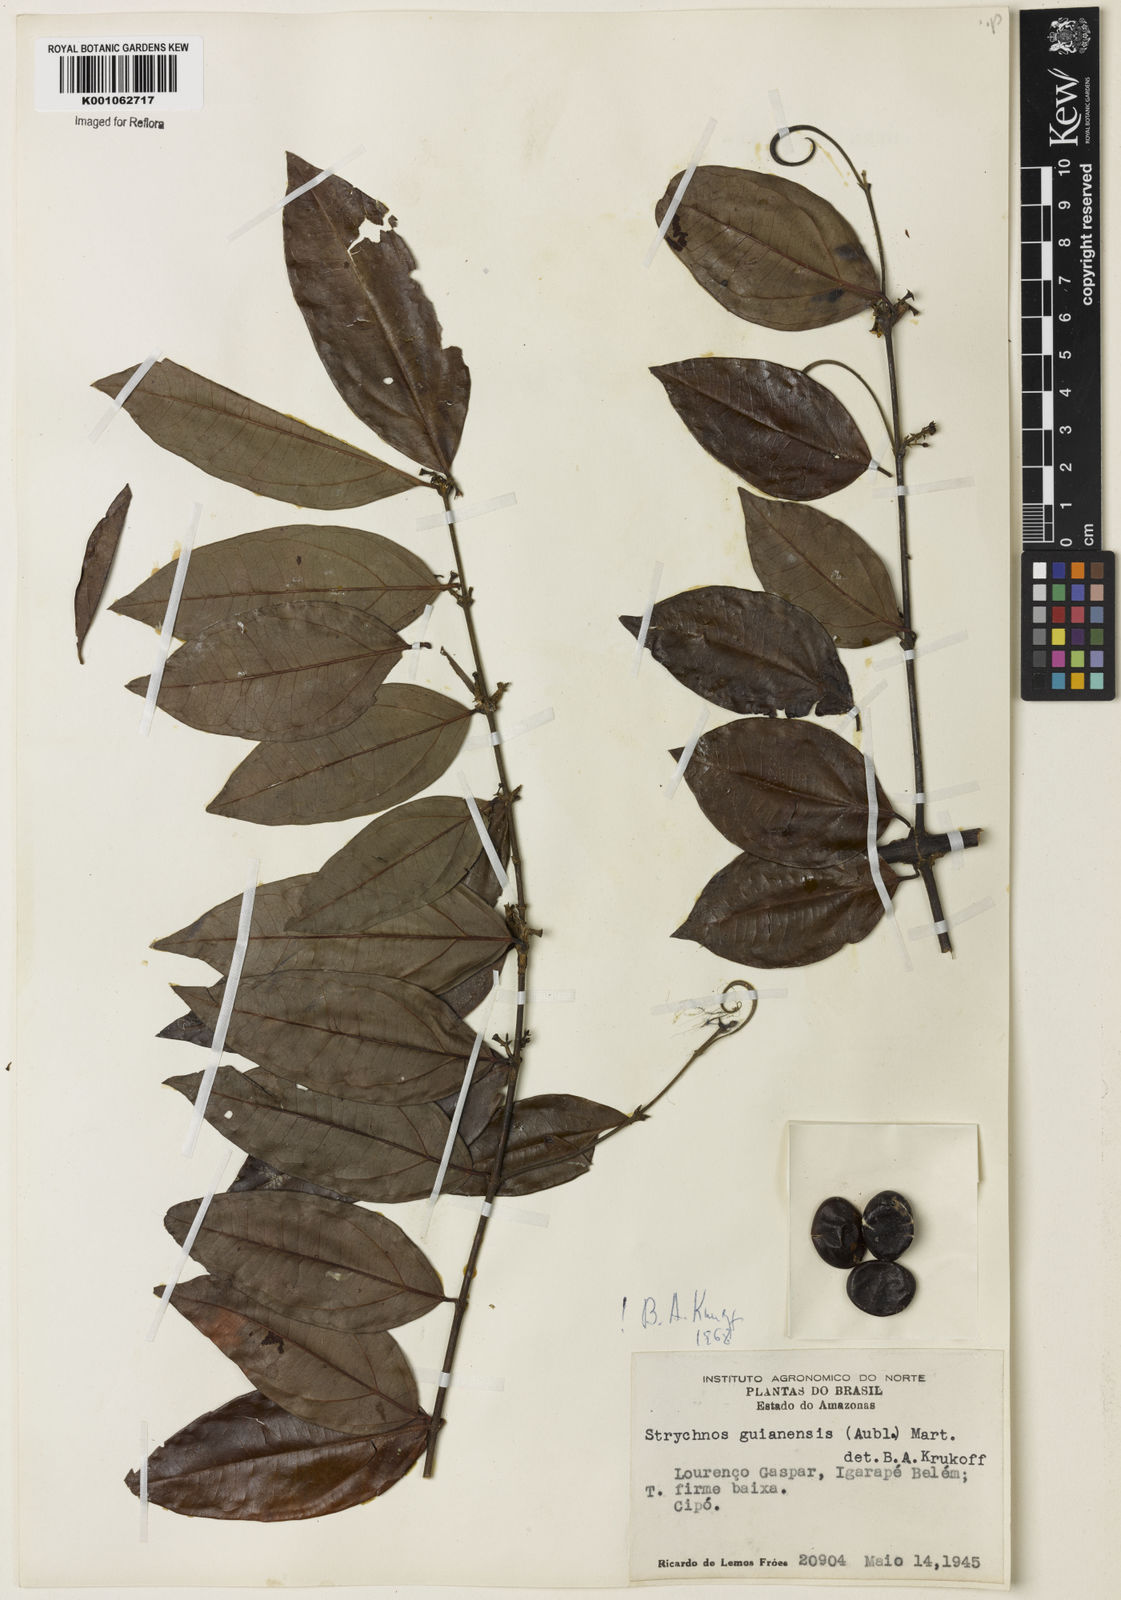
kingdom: Plantae
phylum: Tracheophyta
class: Magnoliopsida
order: Gentianales
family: Loganiaceae
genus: Strychnos
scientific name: Strychnos guianensis
